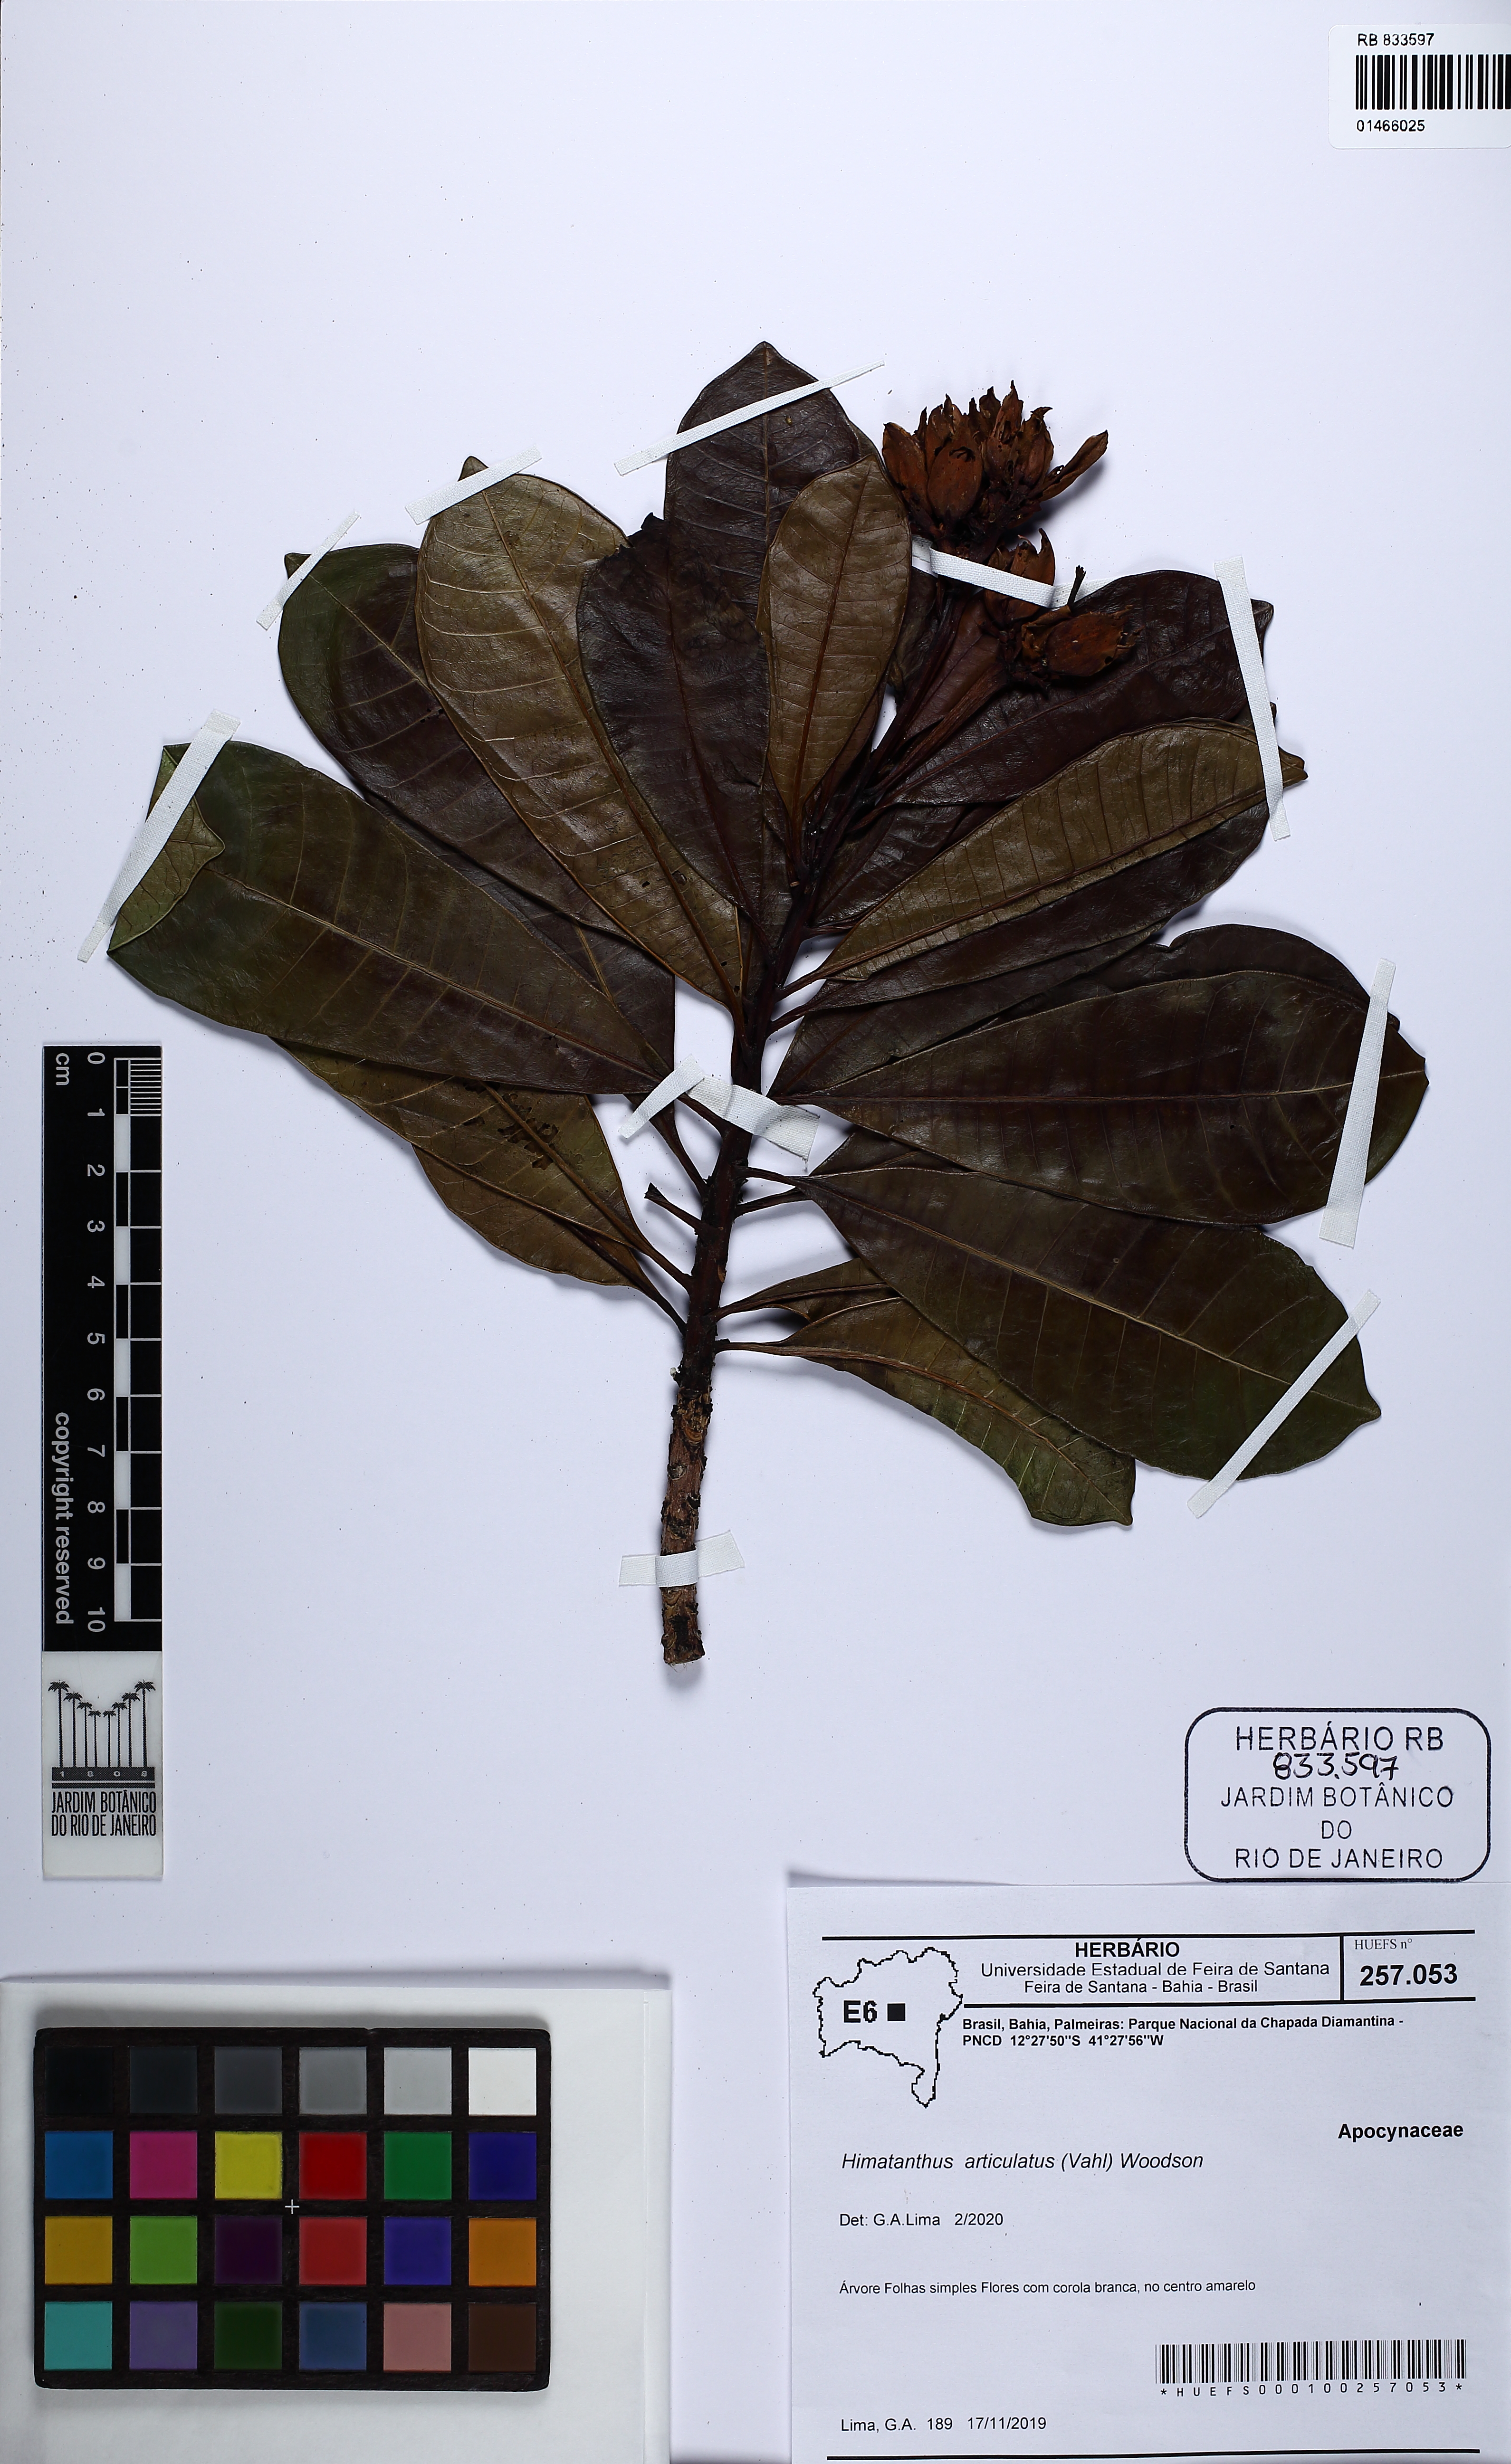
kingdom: Plantae
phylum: Tracheophyta
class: Magnoliopsida
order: Gentianales
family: Apocynaceae
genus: Himatanthus
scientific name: Himatanthus articulatus
